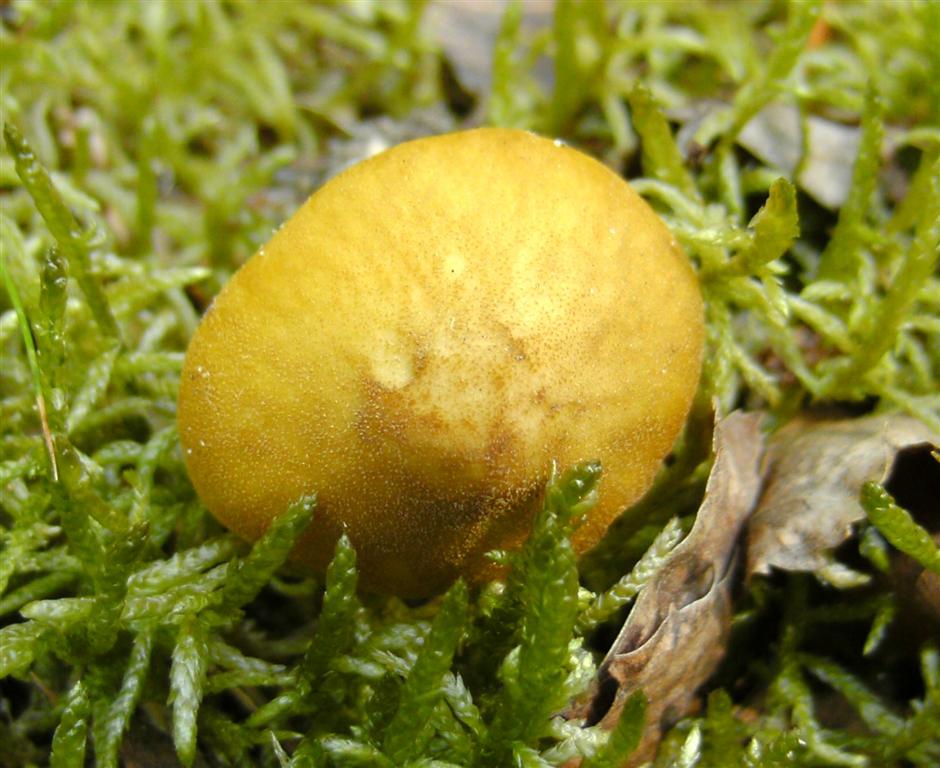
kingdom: Fungi
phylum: Basidiomycota
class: Agaricomycetes
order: Agaricales
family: Pluteaceae
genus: Pluteus
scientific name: Pluteus leoninus
